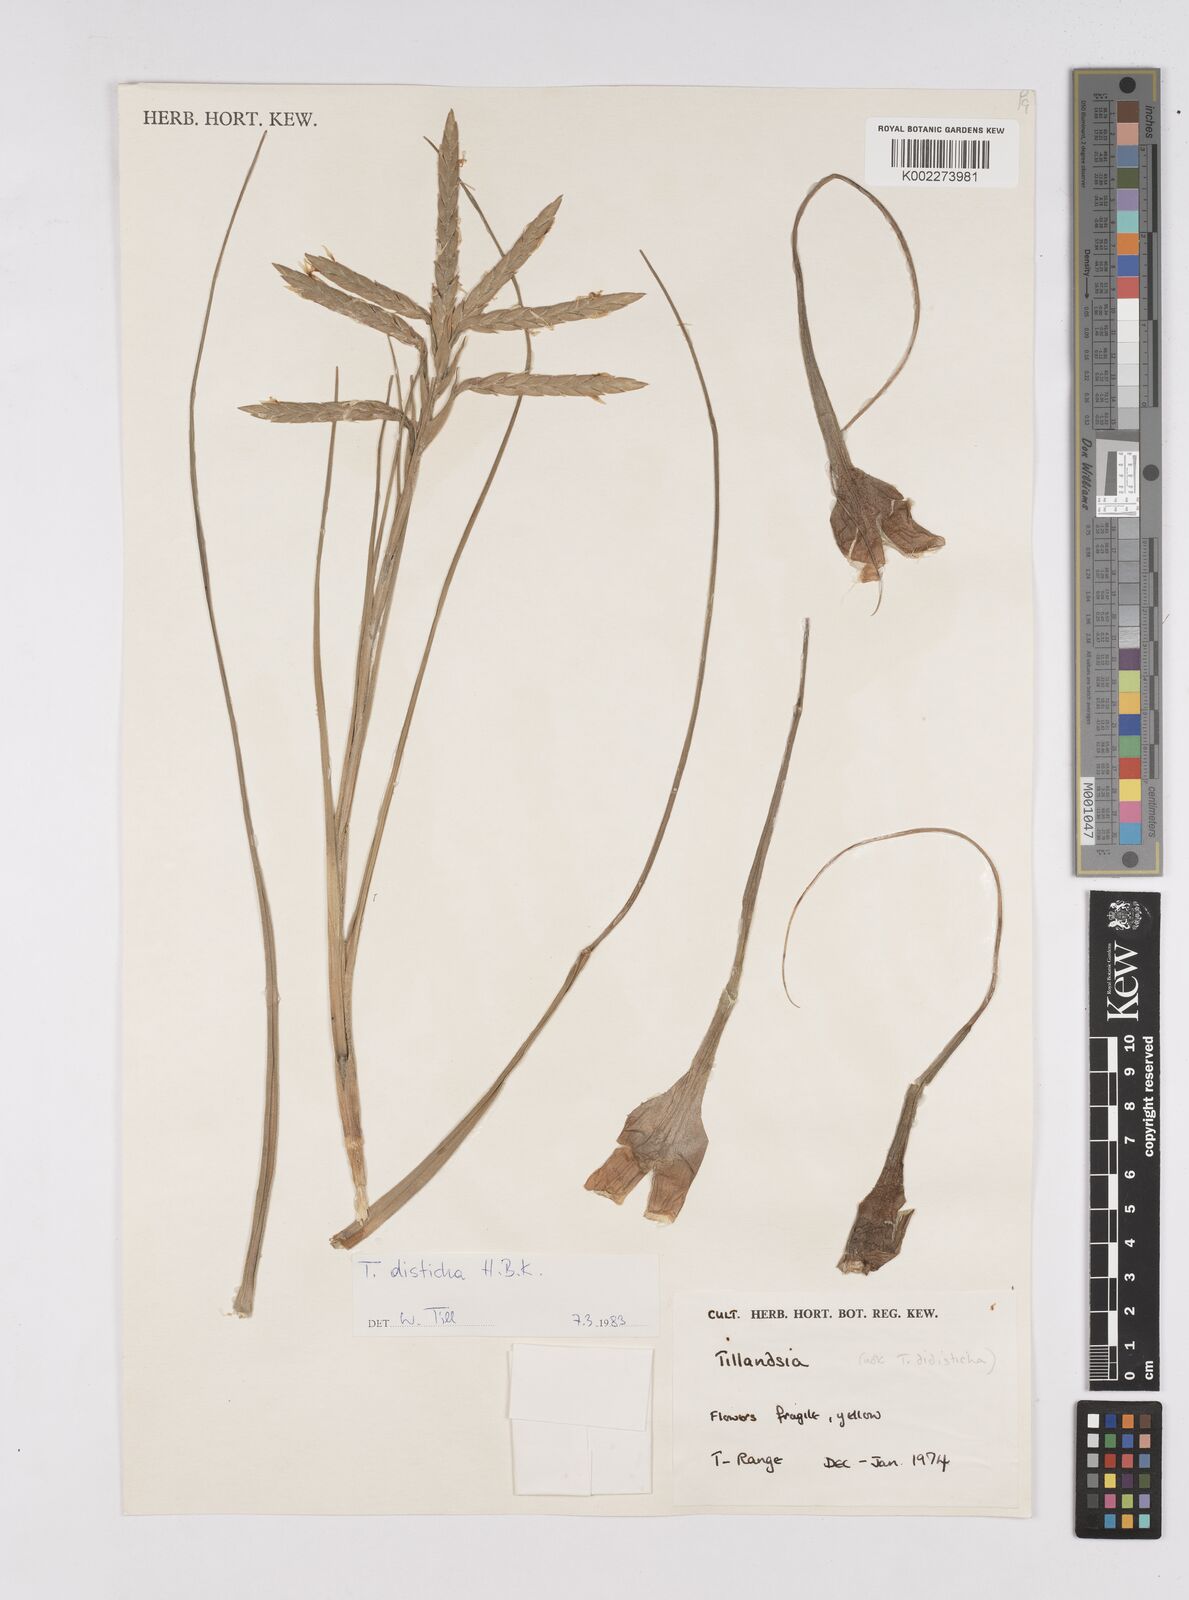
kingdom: Plantae
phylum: Tracheophyta
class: Liliopsida
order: Poales
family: Bromeliaceae
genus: Tillandsia
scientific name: Tillandsia
